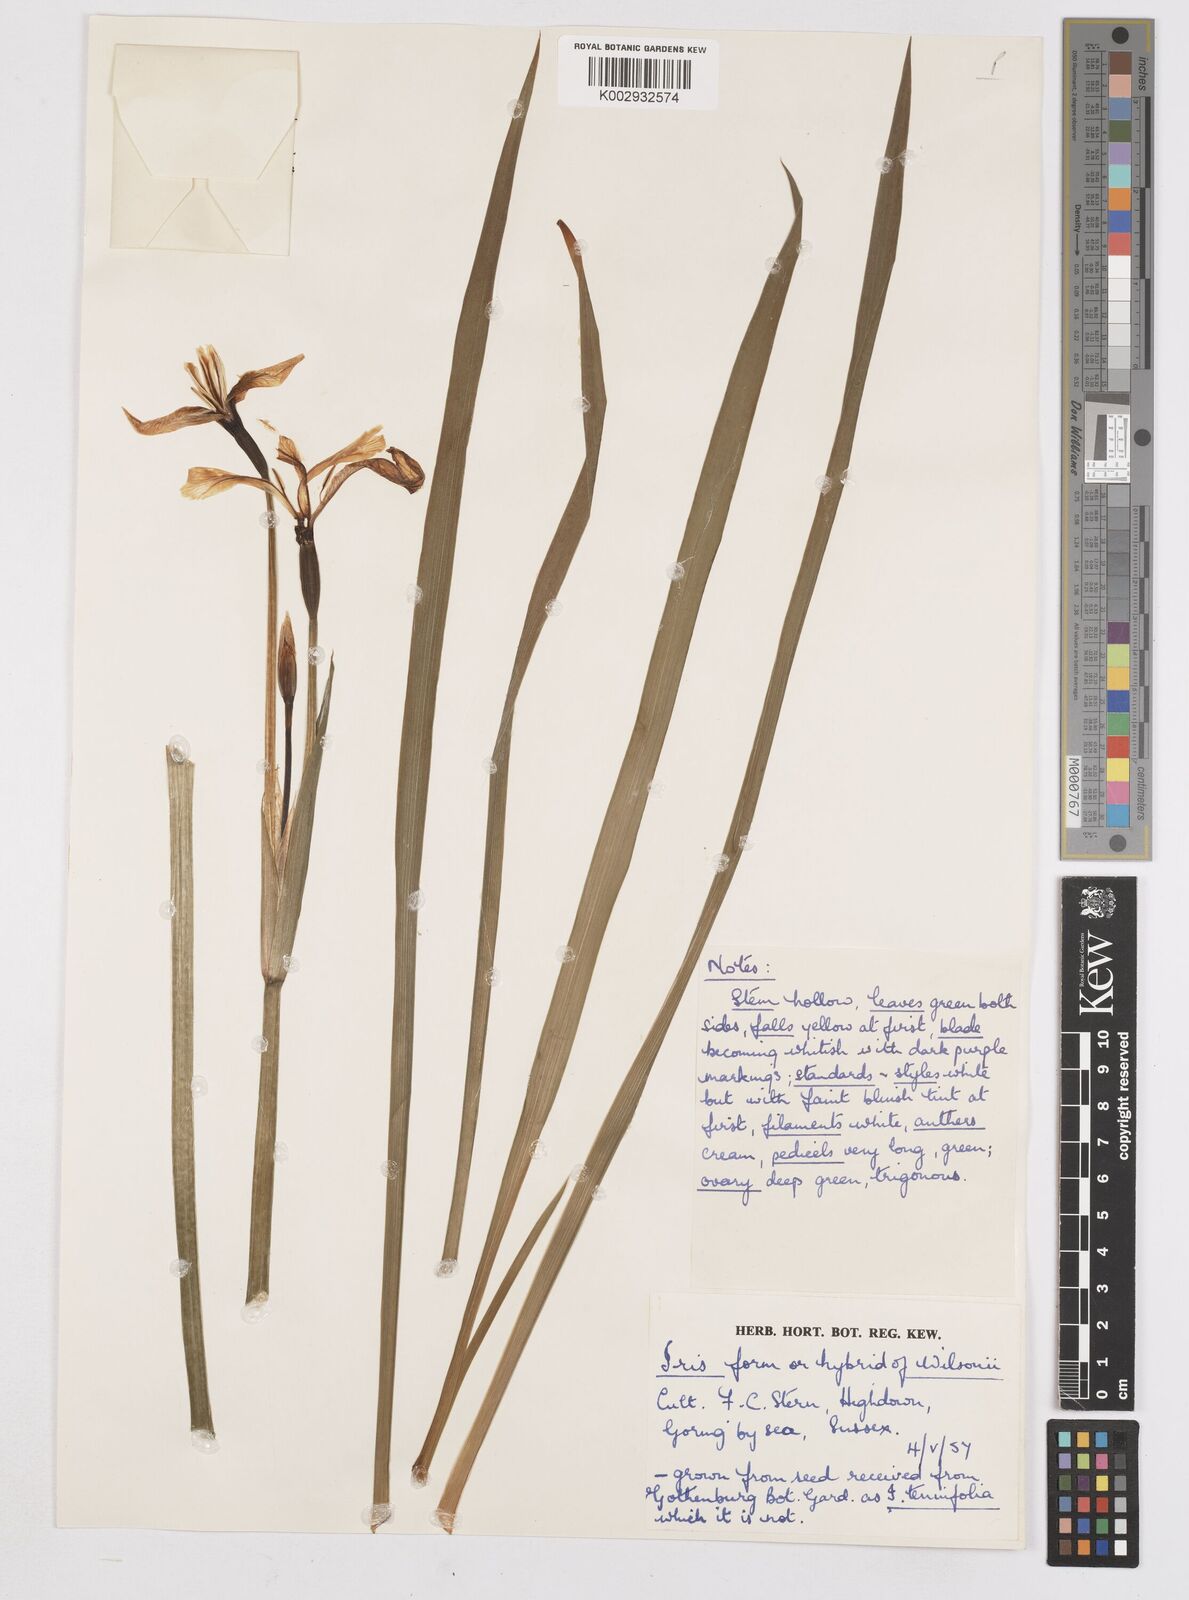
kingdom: Plantae
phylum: Tracheophyta
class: Liliopsida
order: Asparagales
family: Iridaceae
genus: Iris
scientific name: Iris wilsonii
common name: Yellow-flower iris
